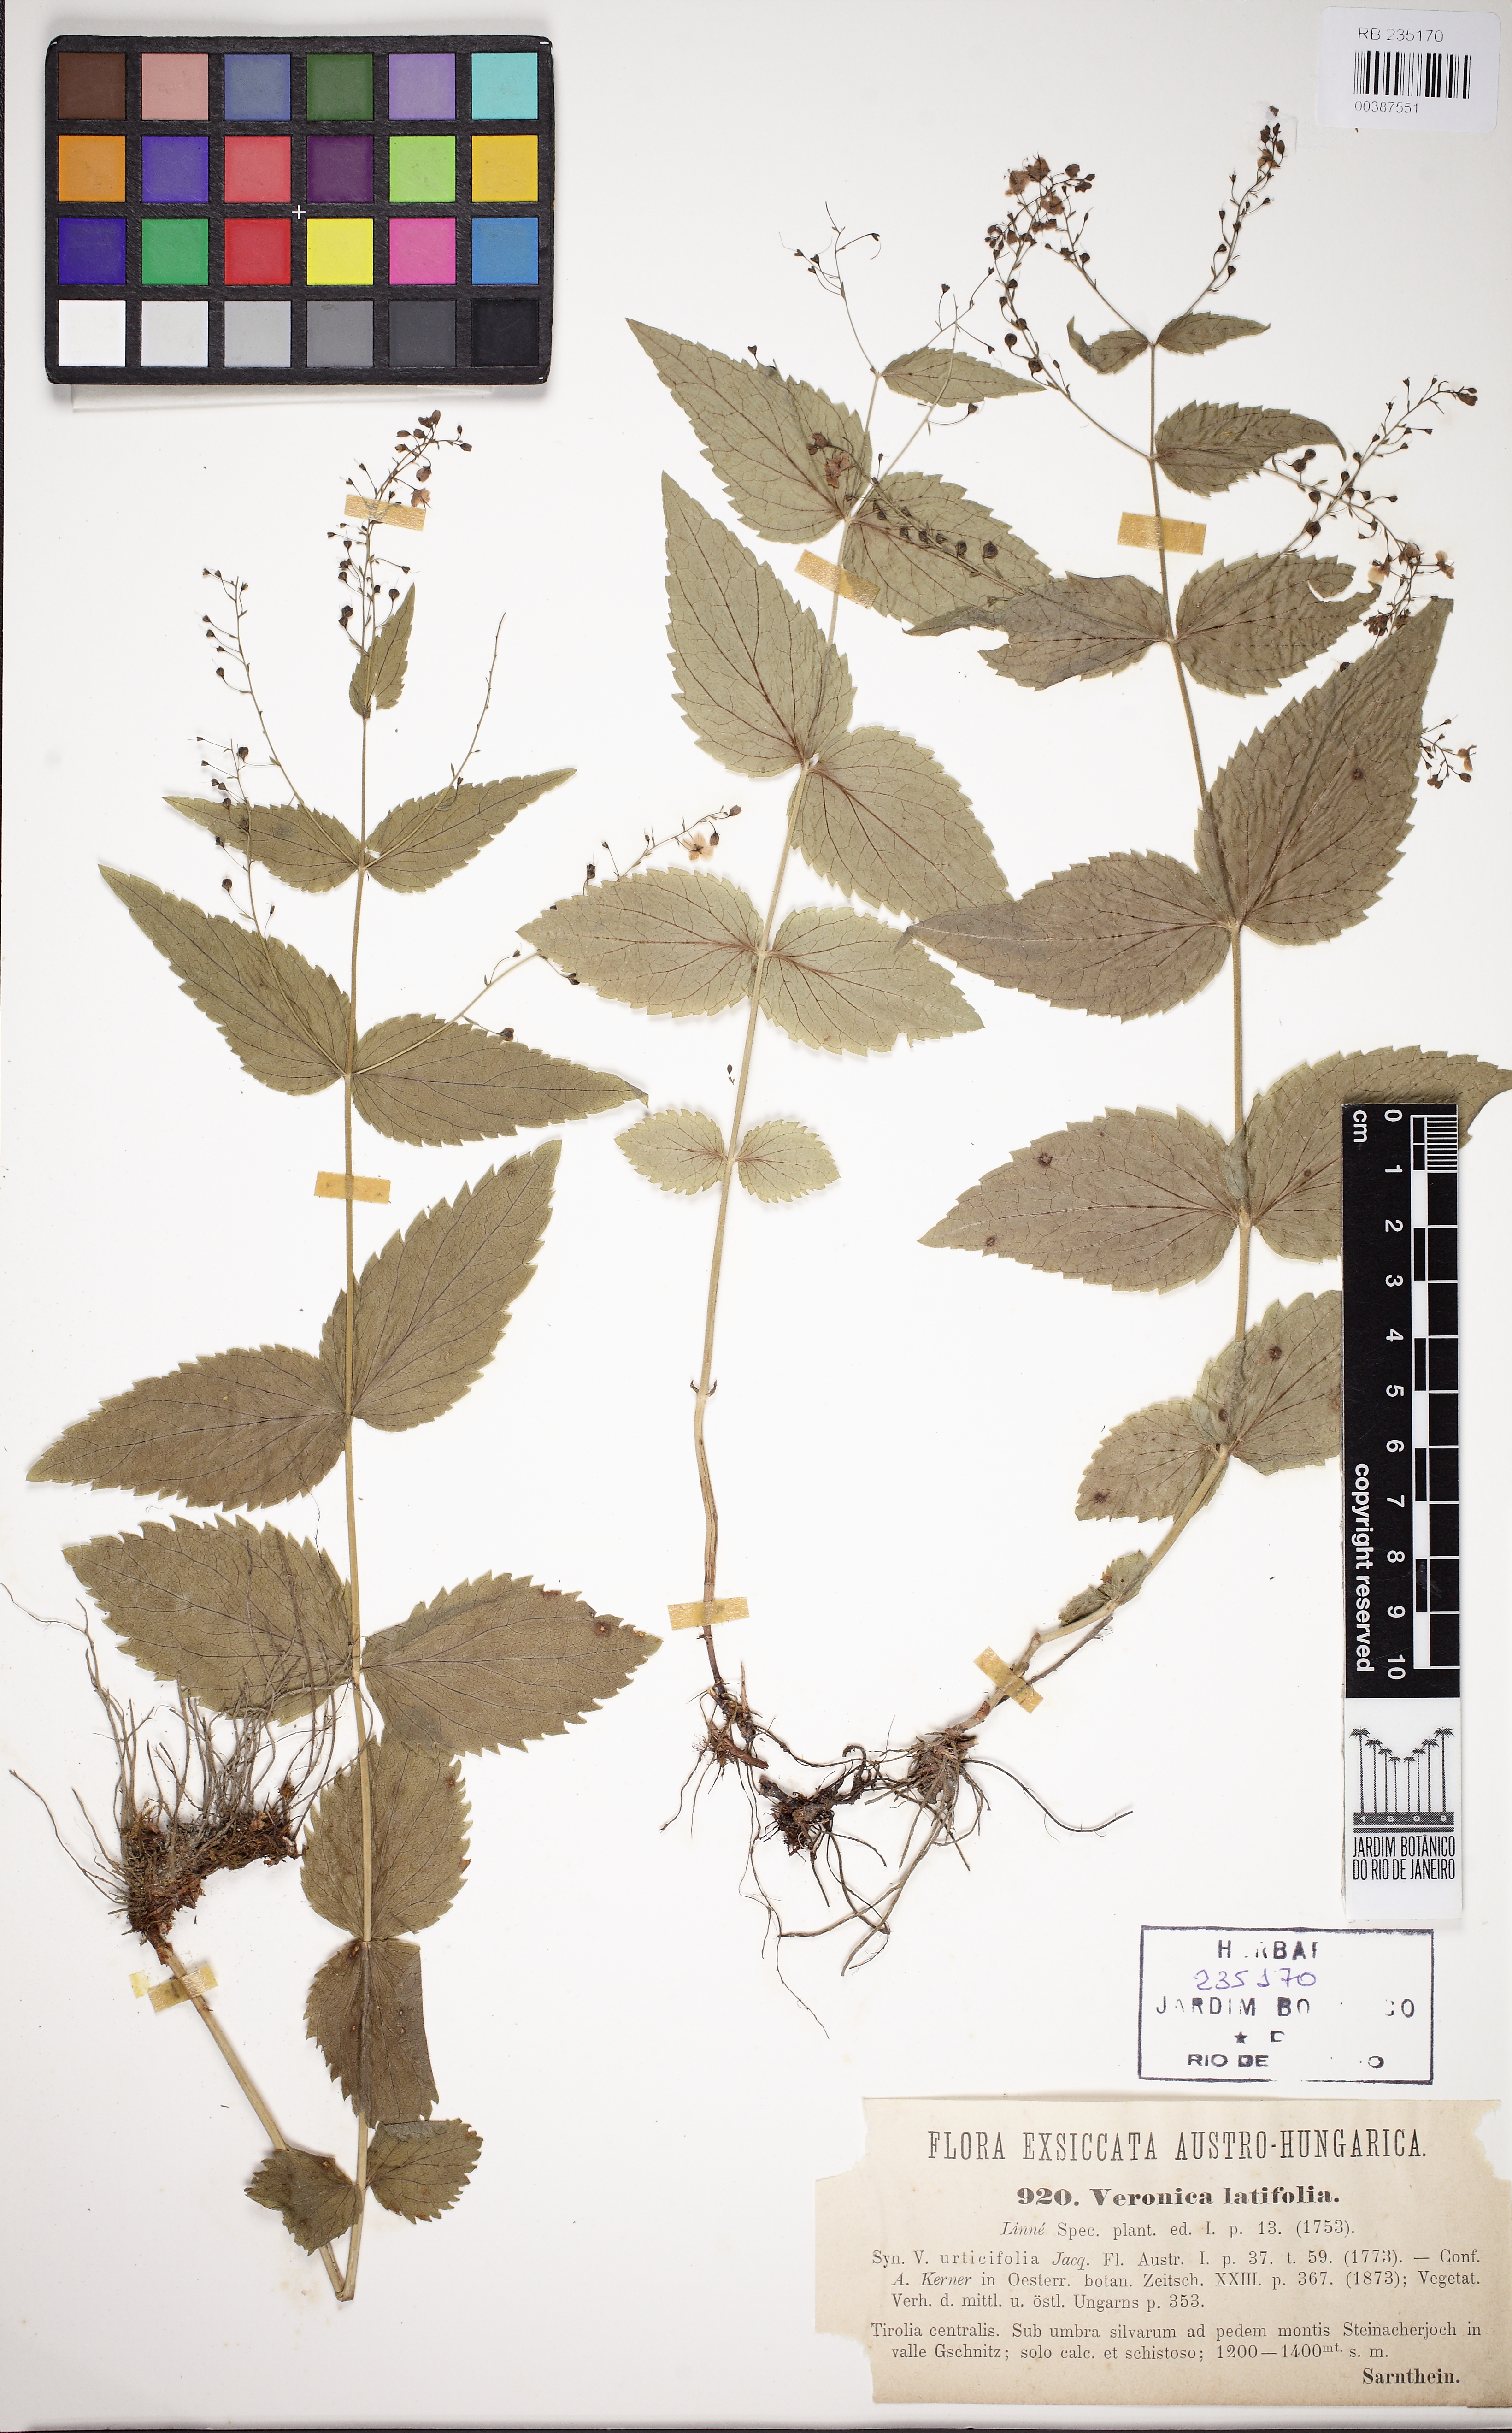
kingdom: Plantae
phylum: Tracheophyta
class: Magnoliopsida
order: Lamiales
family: Plantaginaceae
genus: Veronica
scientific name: Veronica teucrium
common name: Large speedwell
